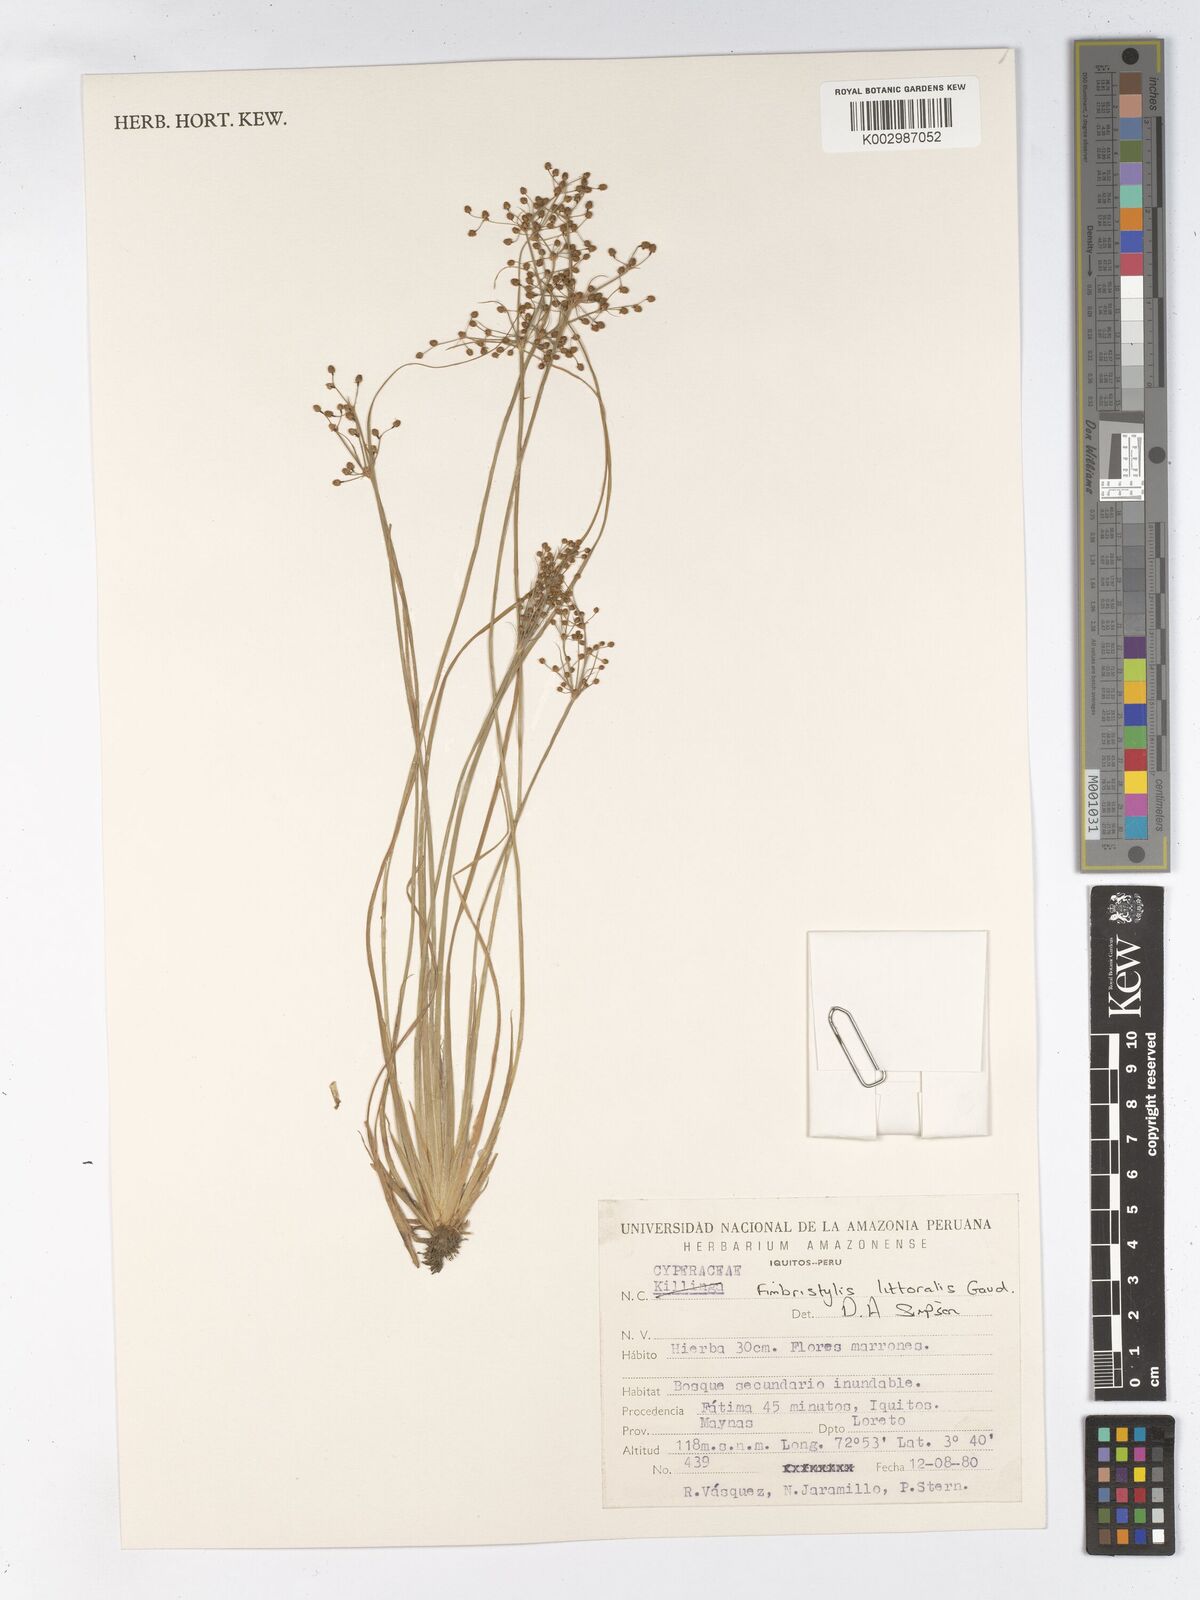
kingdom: Plantae
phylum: Tracheophyta
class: Liliopsida
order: Poales
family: Cyperaceae
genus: Fimbristylis
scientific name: Fimbristylis littoralis
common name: Fimbry
